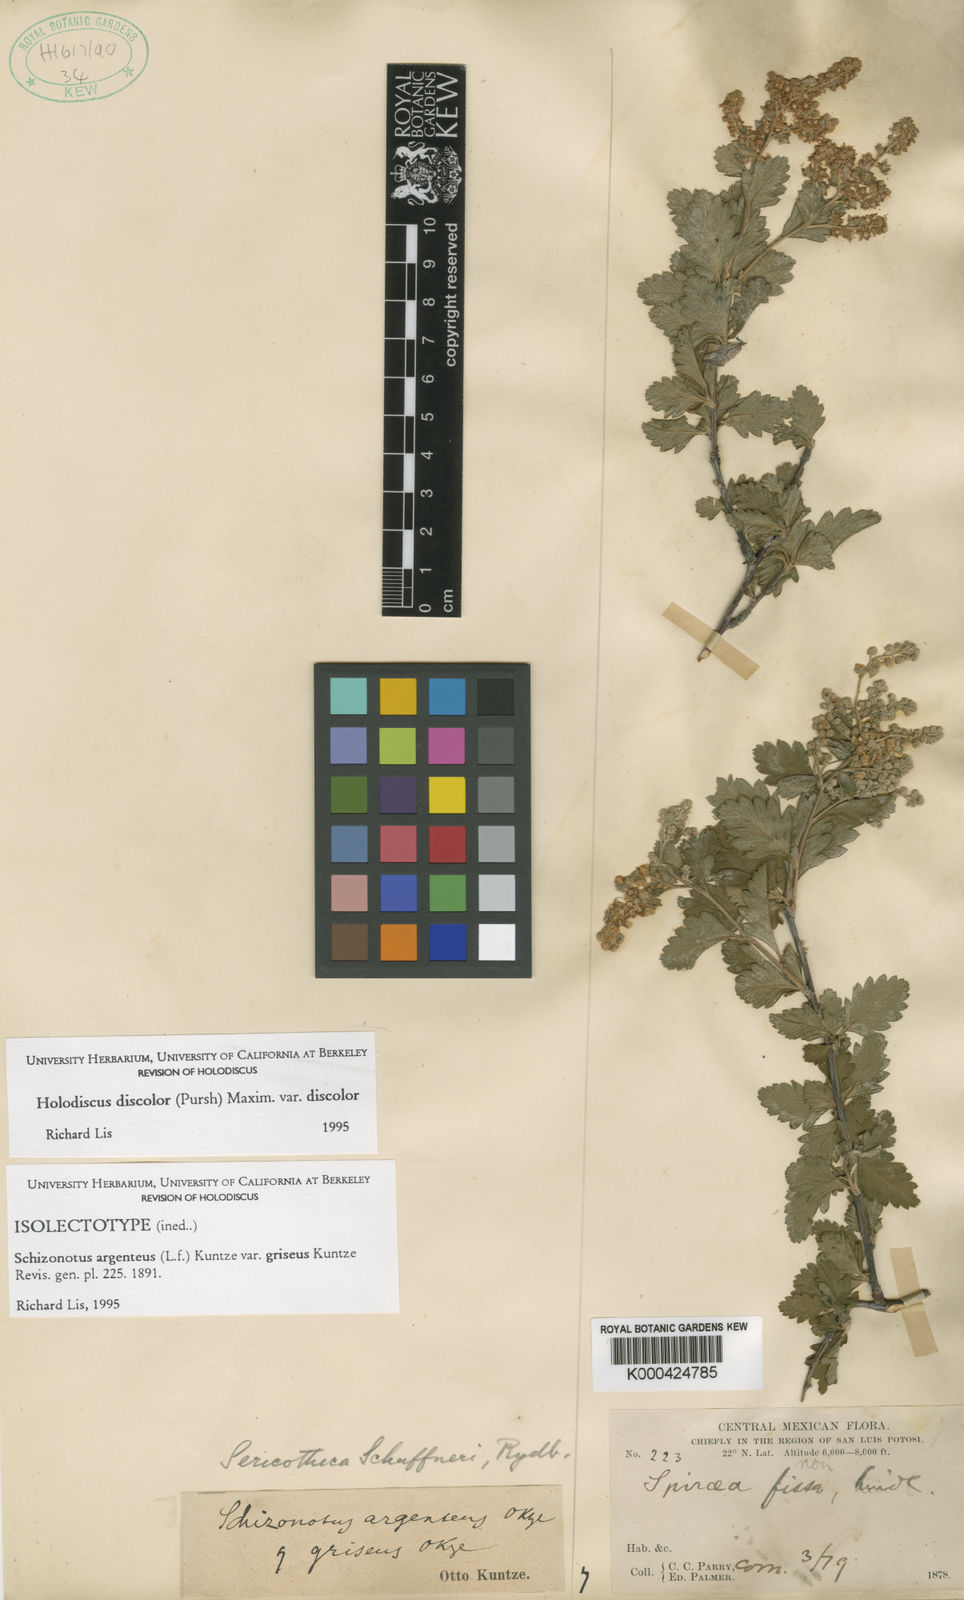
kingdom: Plantae
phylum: Tracheophyta
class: Magnoliopsida
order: Rosales
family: Rosaceae
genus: Holodiscus
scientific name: Holodiscus discolor
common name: Oceanspray
